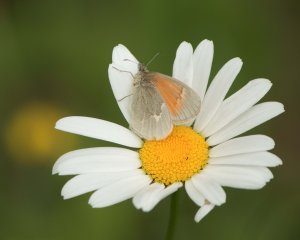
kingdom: Animalia
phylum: Arthropoda
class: Insecta
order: Lepidoptera
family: Nymphalidae
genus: Coenonympha
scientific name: Coenonympha tullia
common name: Large Heath
